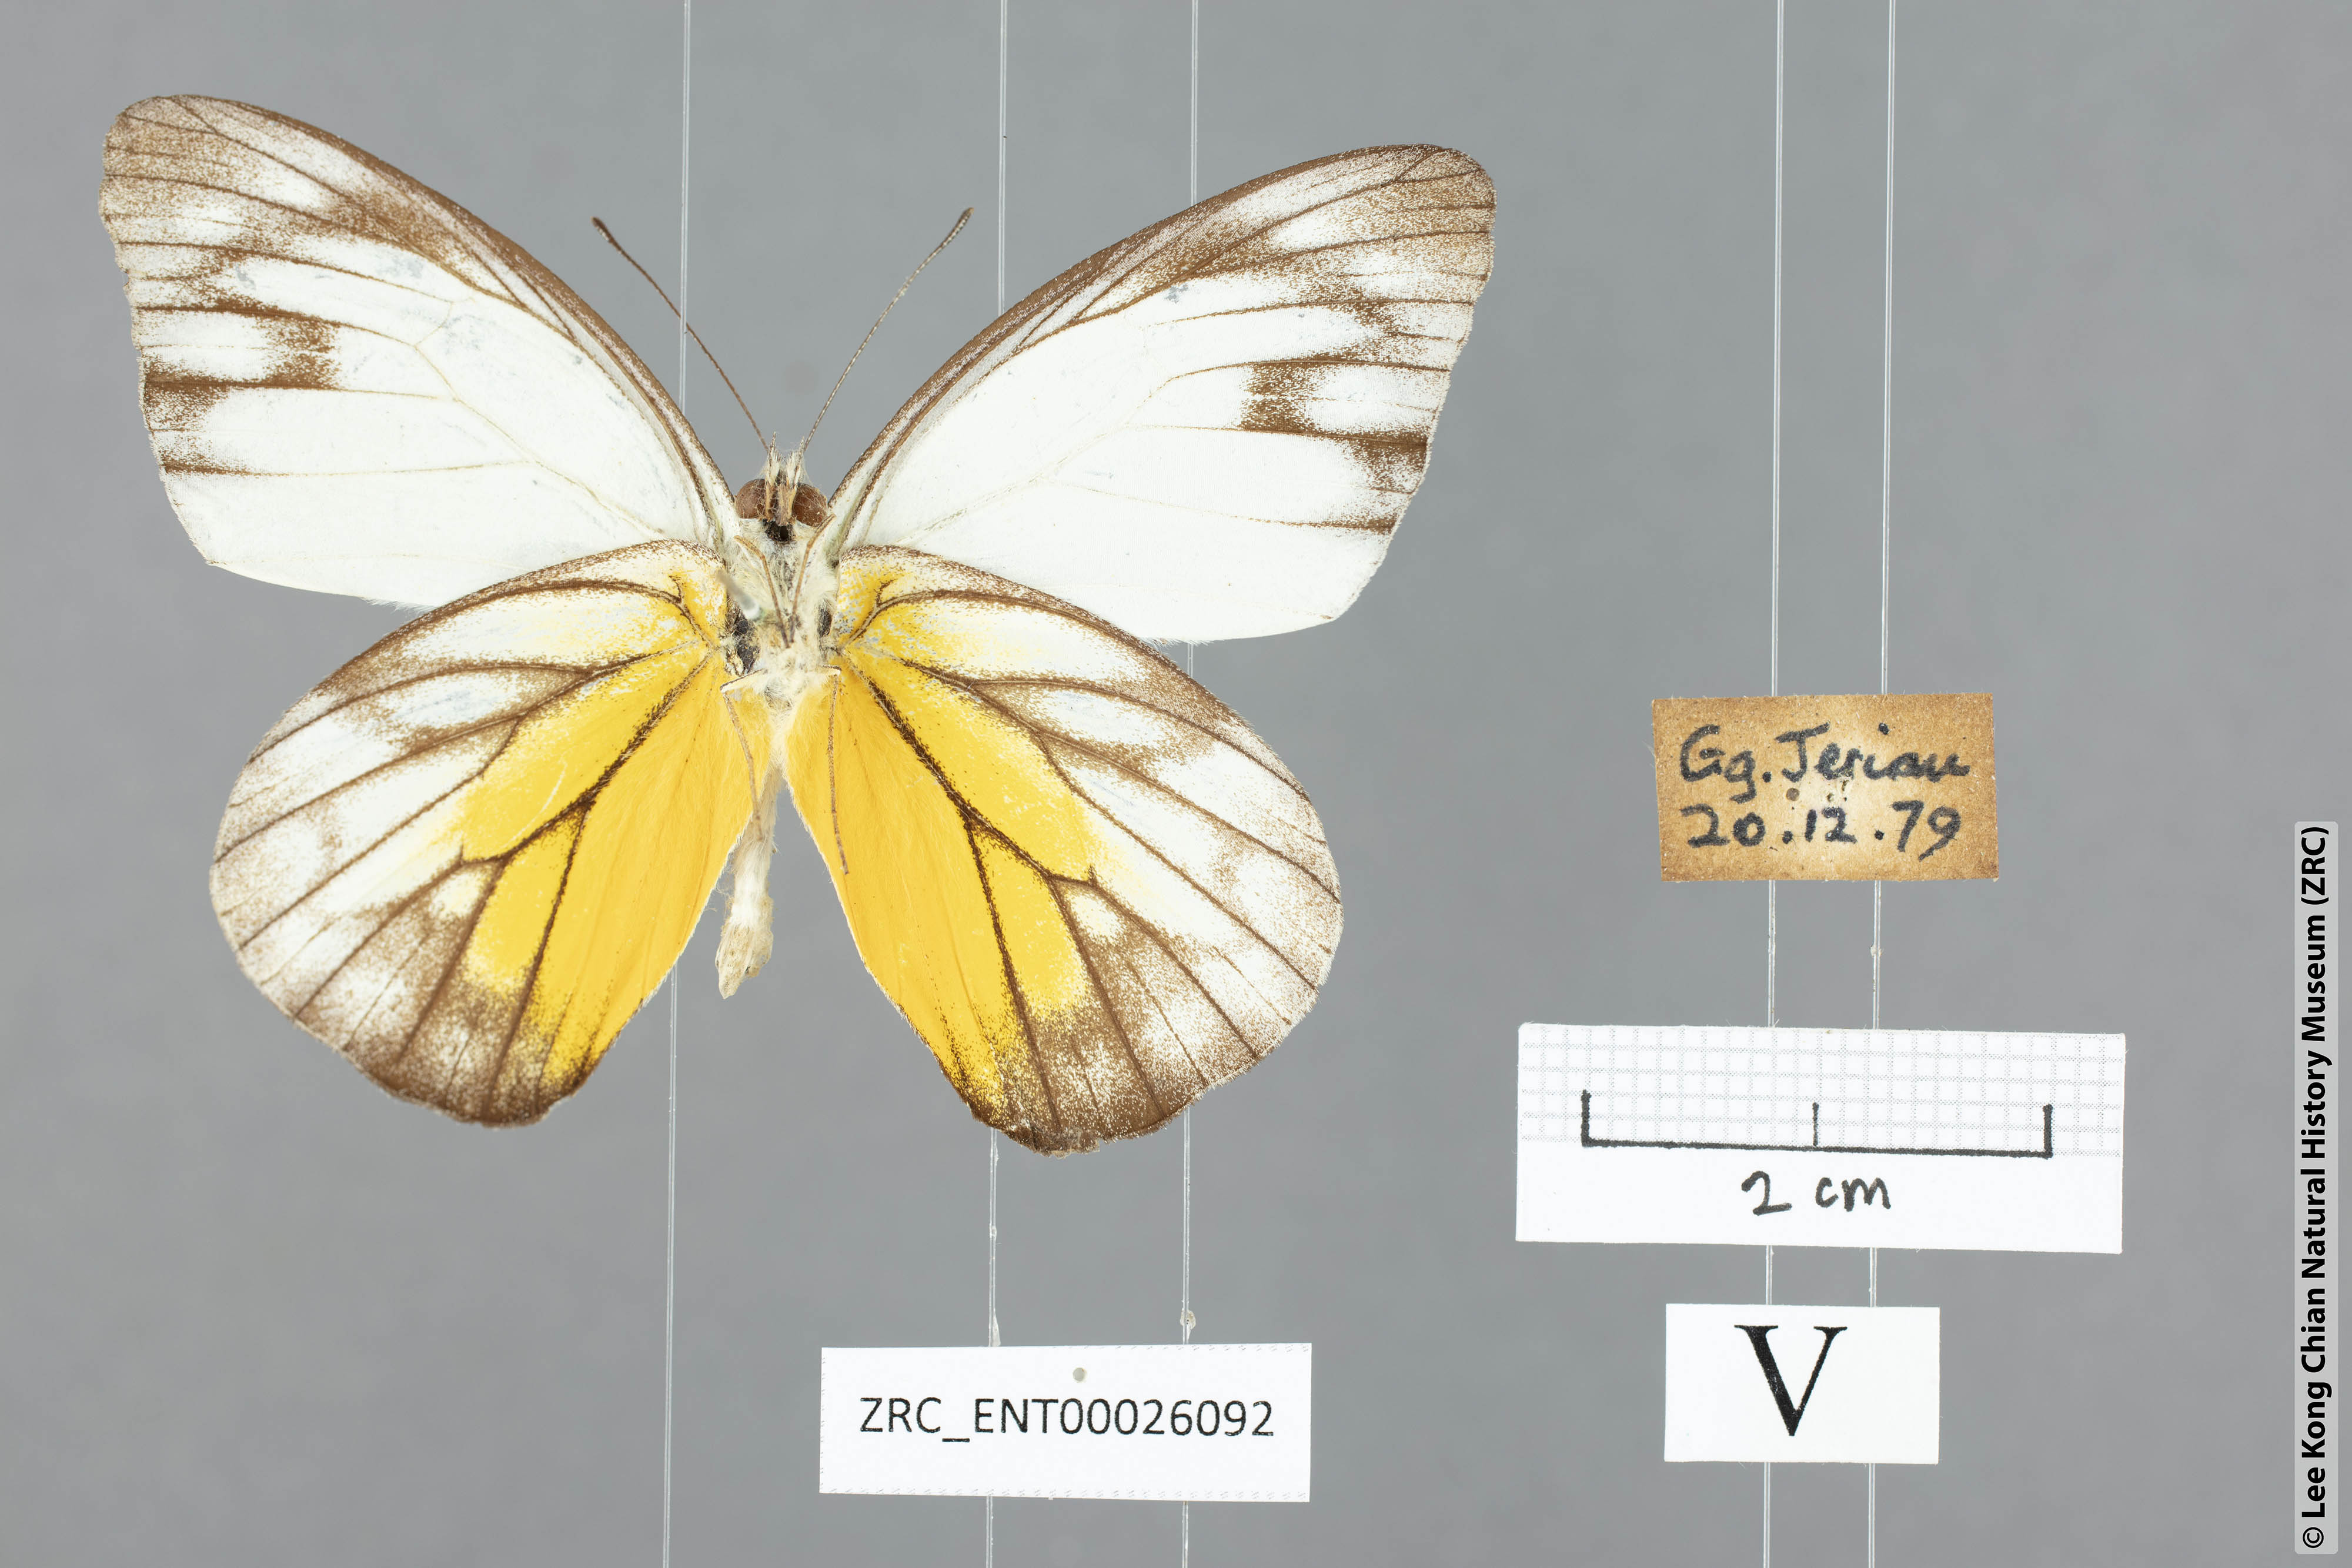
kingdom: Animalia
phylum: Arthropoda
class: Insecta
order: Lepidoptera
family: Pieridae
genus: Appias
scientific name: Appias cardena
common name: Yellow puffin
